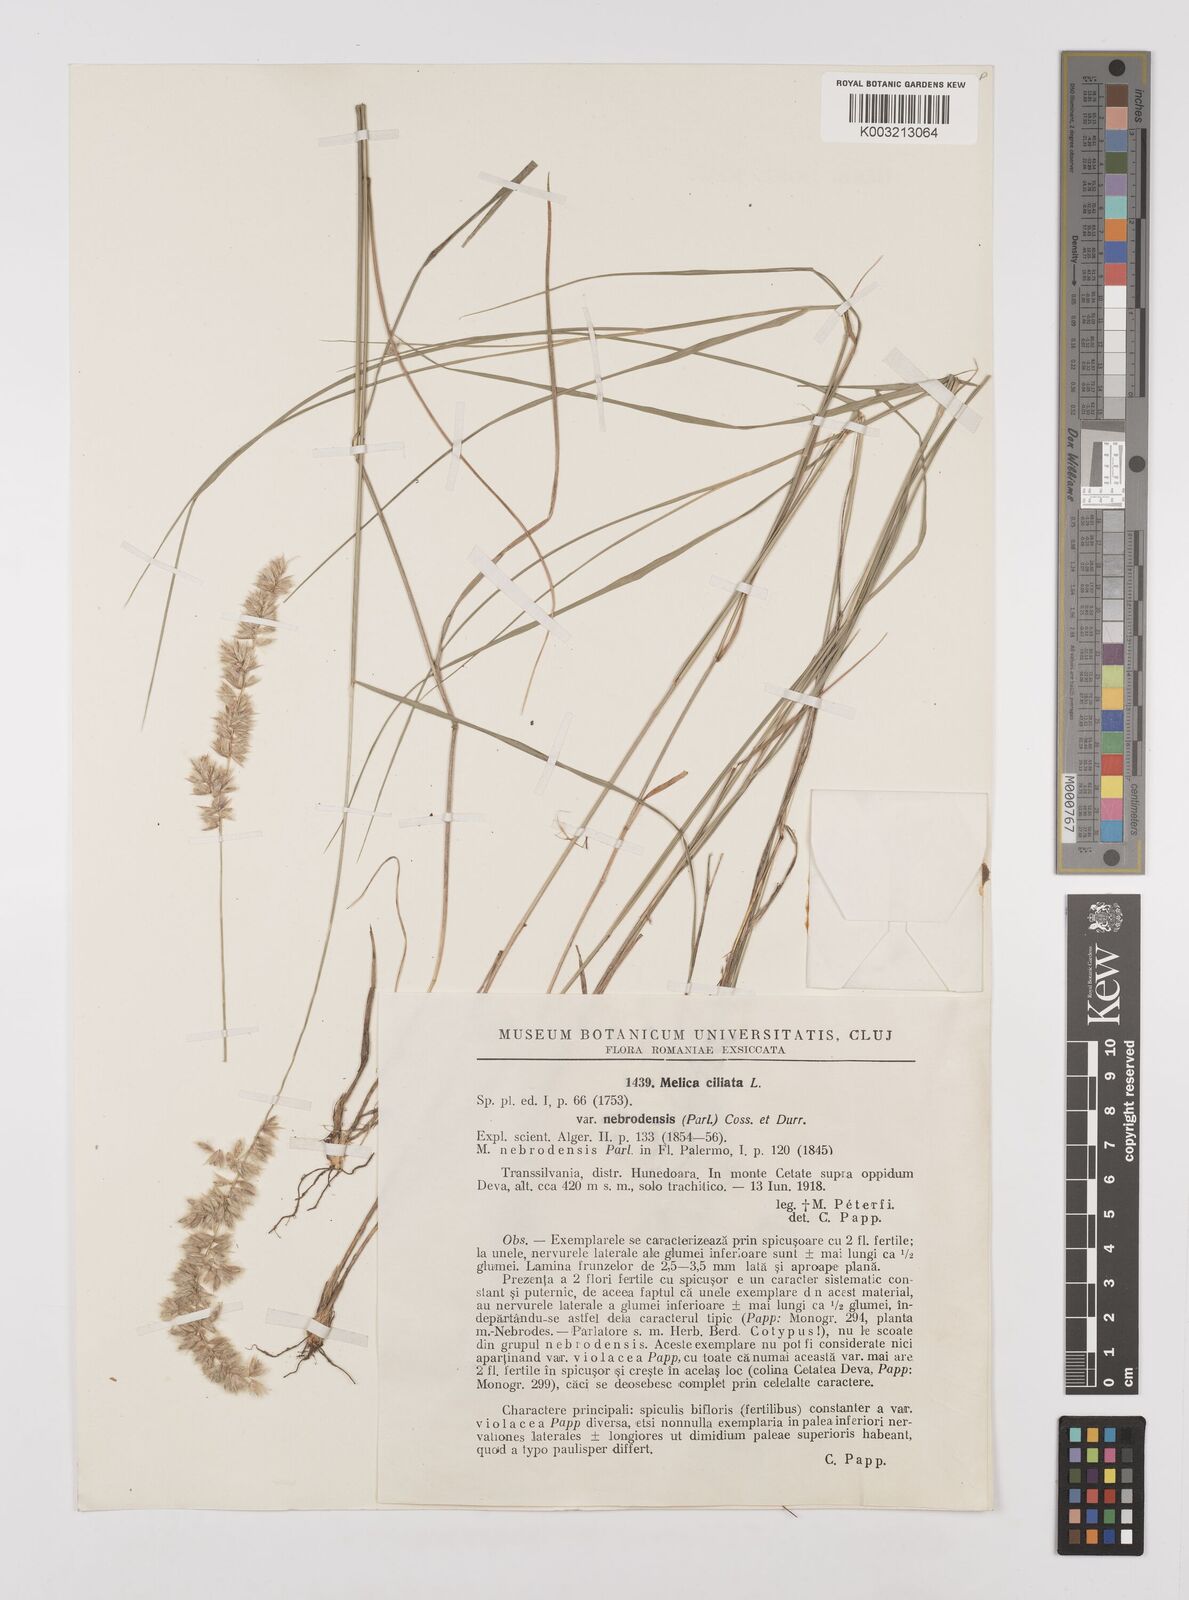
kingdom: Plantae
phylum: Tracheophyta
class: Liliopsida
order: Poales
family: Poaceae
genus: Melica
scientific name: Melica ciliata
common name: Hairy melicgrass
